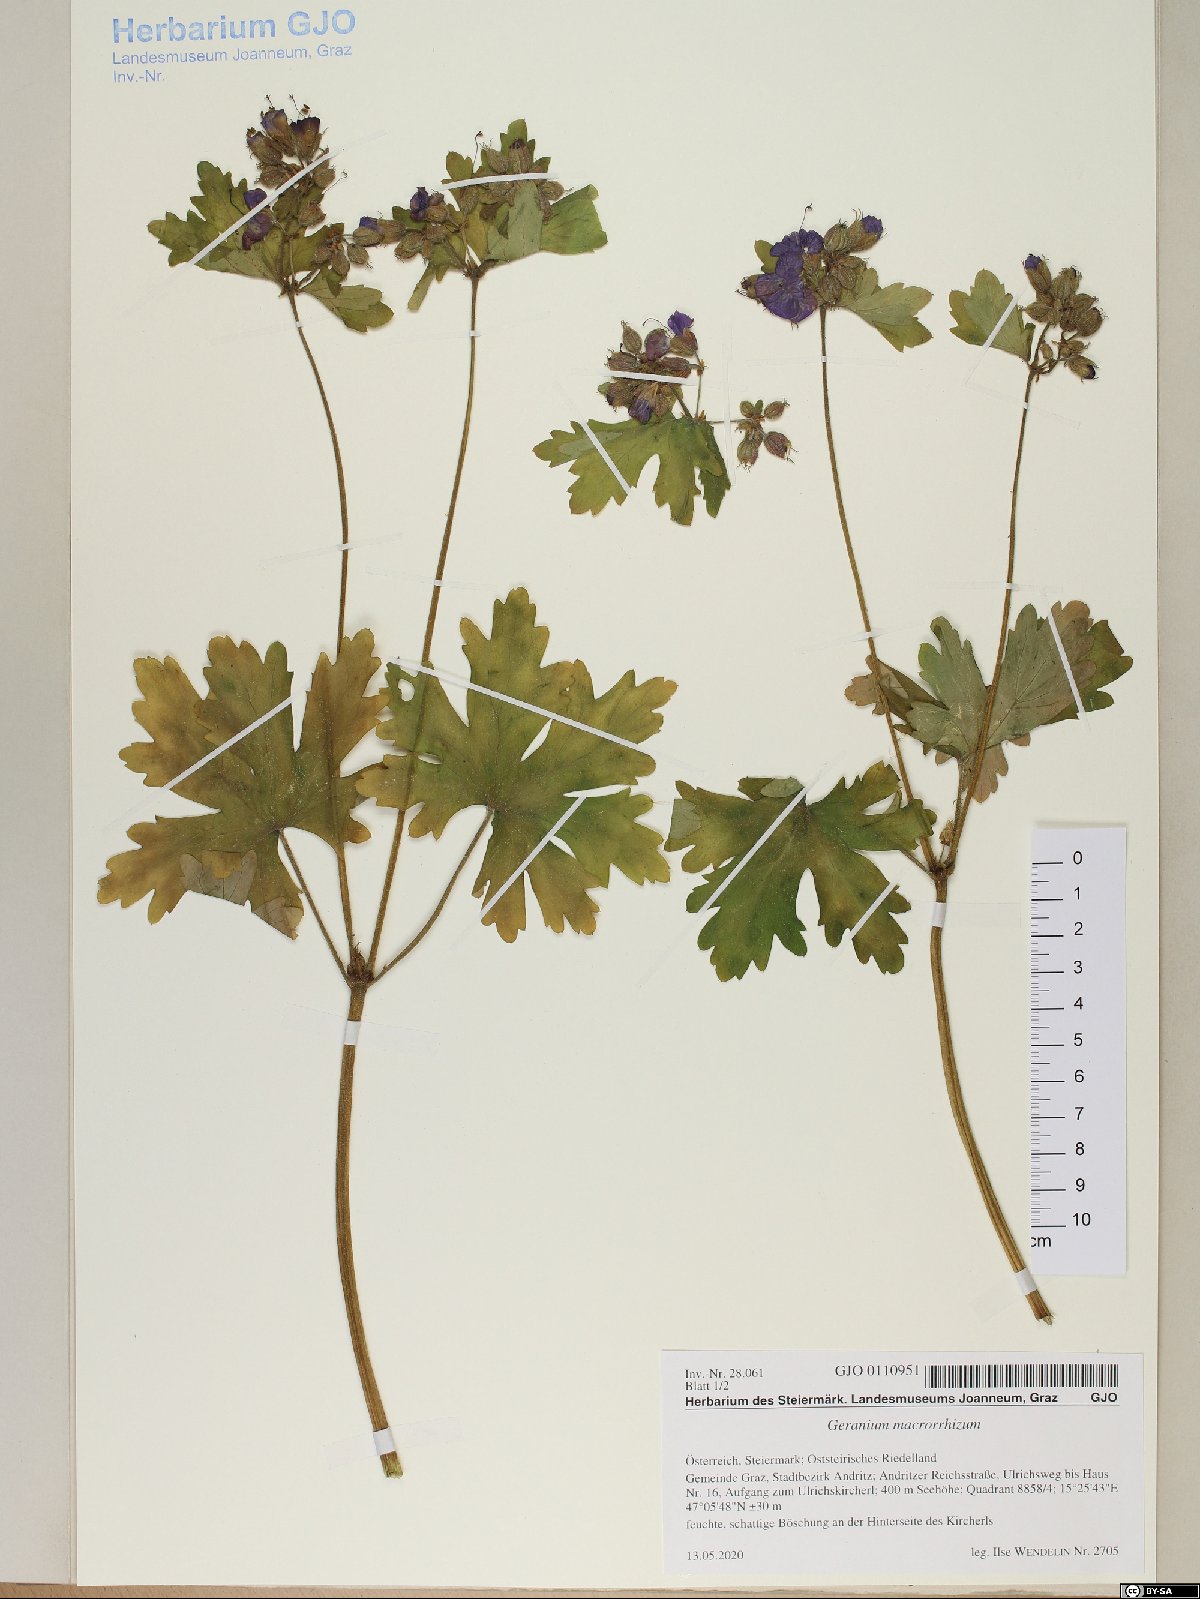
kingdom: Plantae
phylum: Tracheophyta
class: Magnoliopsida
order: Geraniales
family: Geraniaceae
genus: Geranium
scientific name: Geranium macrorrhizum
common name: Rock crane's-bill
